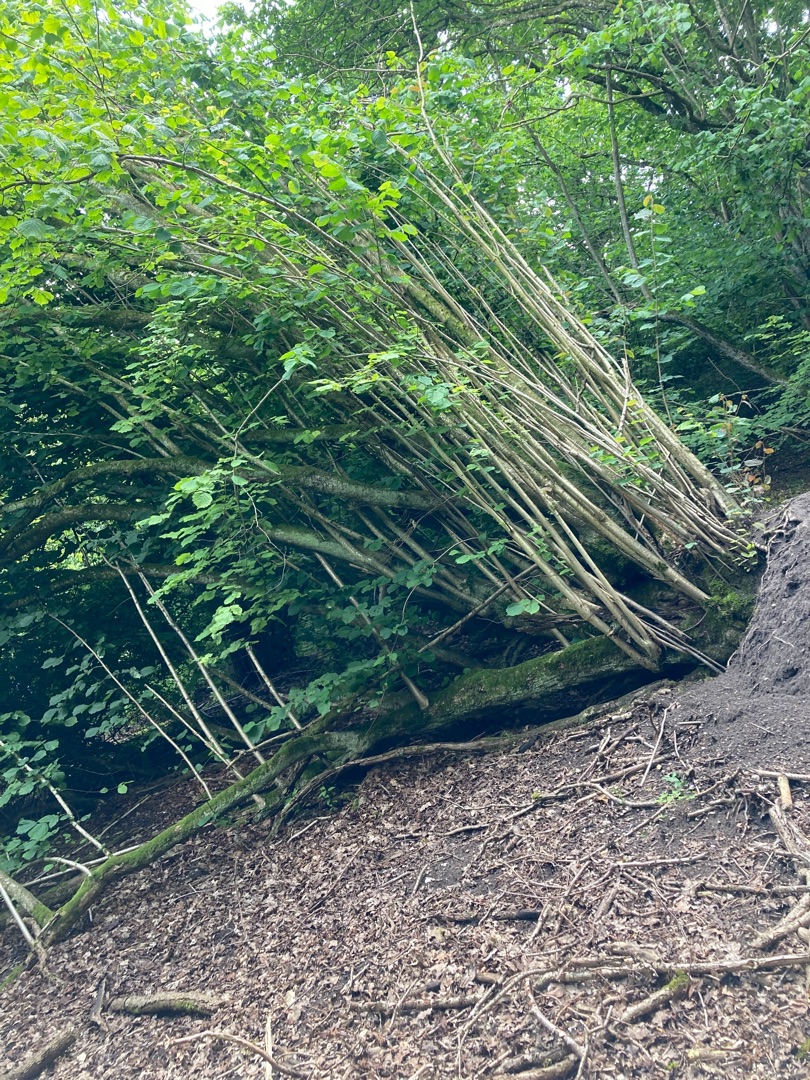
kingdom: Plantae
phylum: Tracheophyta
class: Magnoliopsida
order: Fagales
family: Betulaceae
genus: Corylus
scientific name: Corylus avellana
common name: Hassel
